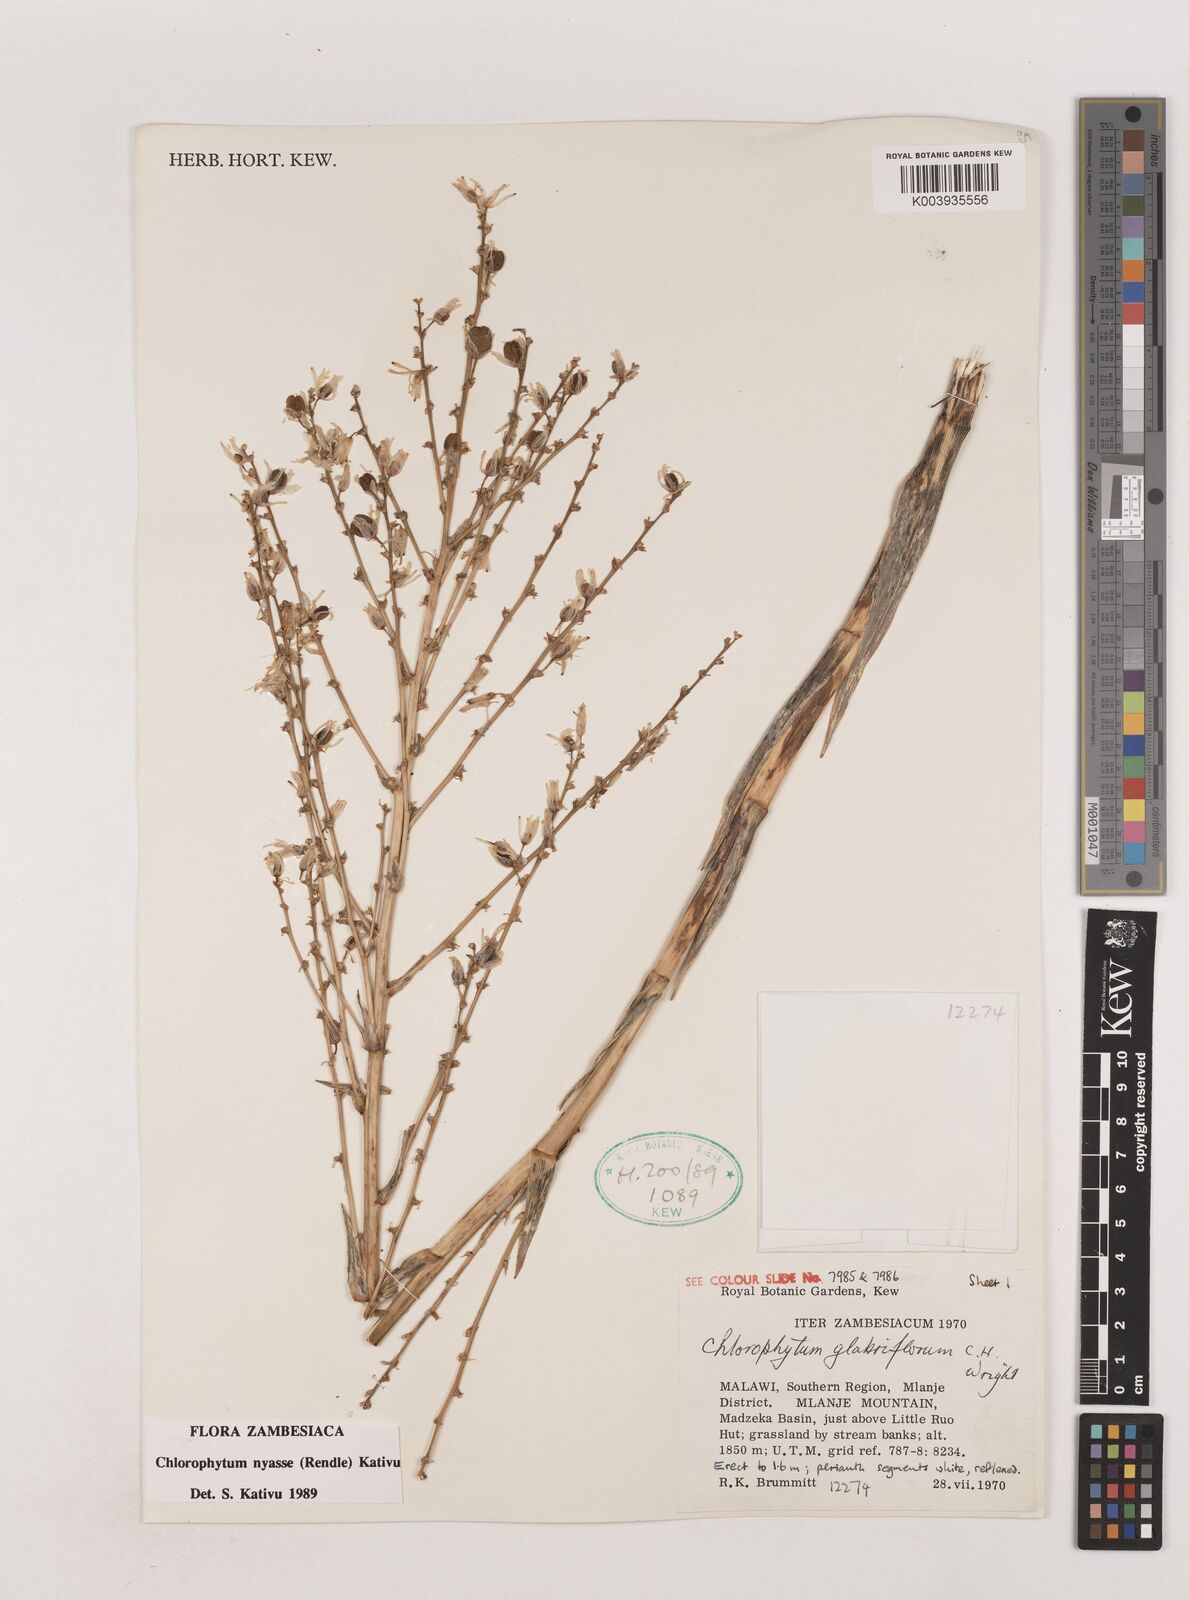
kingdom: Plantae
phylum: Tracheophyta
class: Liliopsida
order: Asparagales
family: Asparagaceae
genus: Chlorophytum
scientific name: Chlorophytum nyasae
